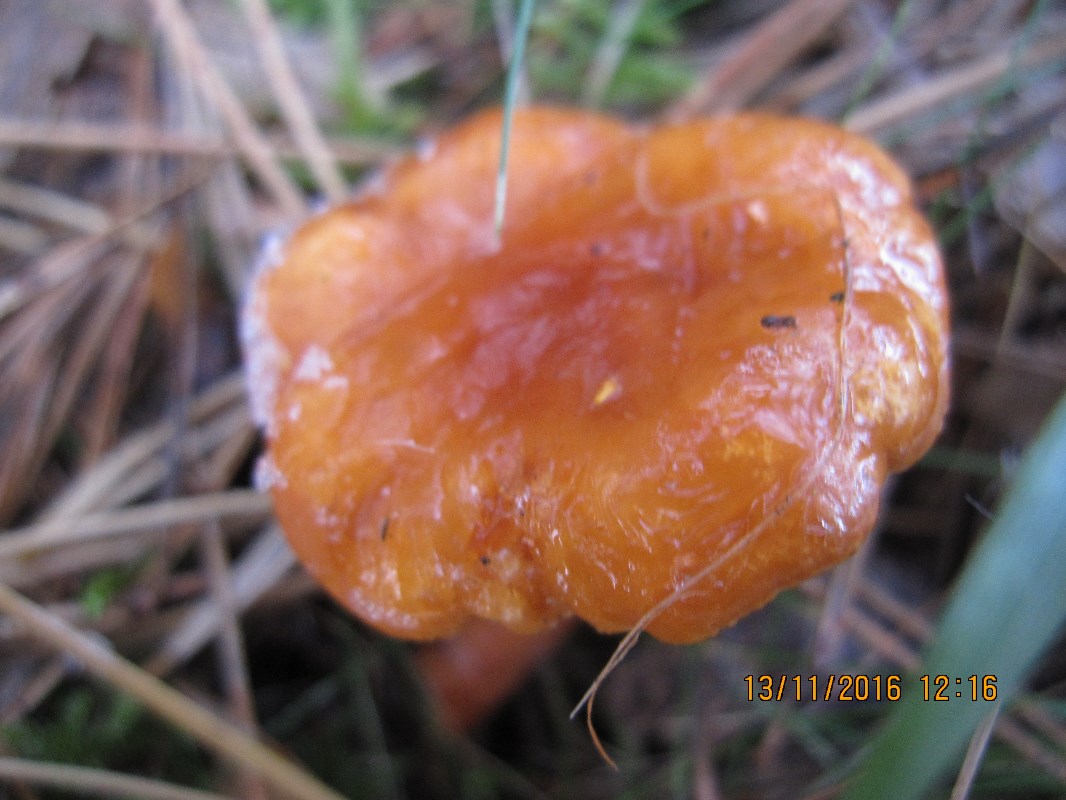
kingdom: Fungi
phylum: Basidiomycota
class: Agaricomycetes
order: Russulales
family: Russulaceae
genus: Lactarius
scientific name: Lactarius aurantiacus
